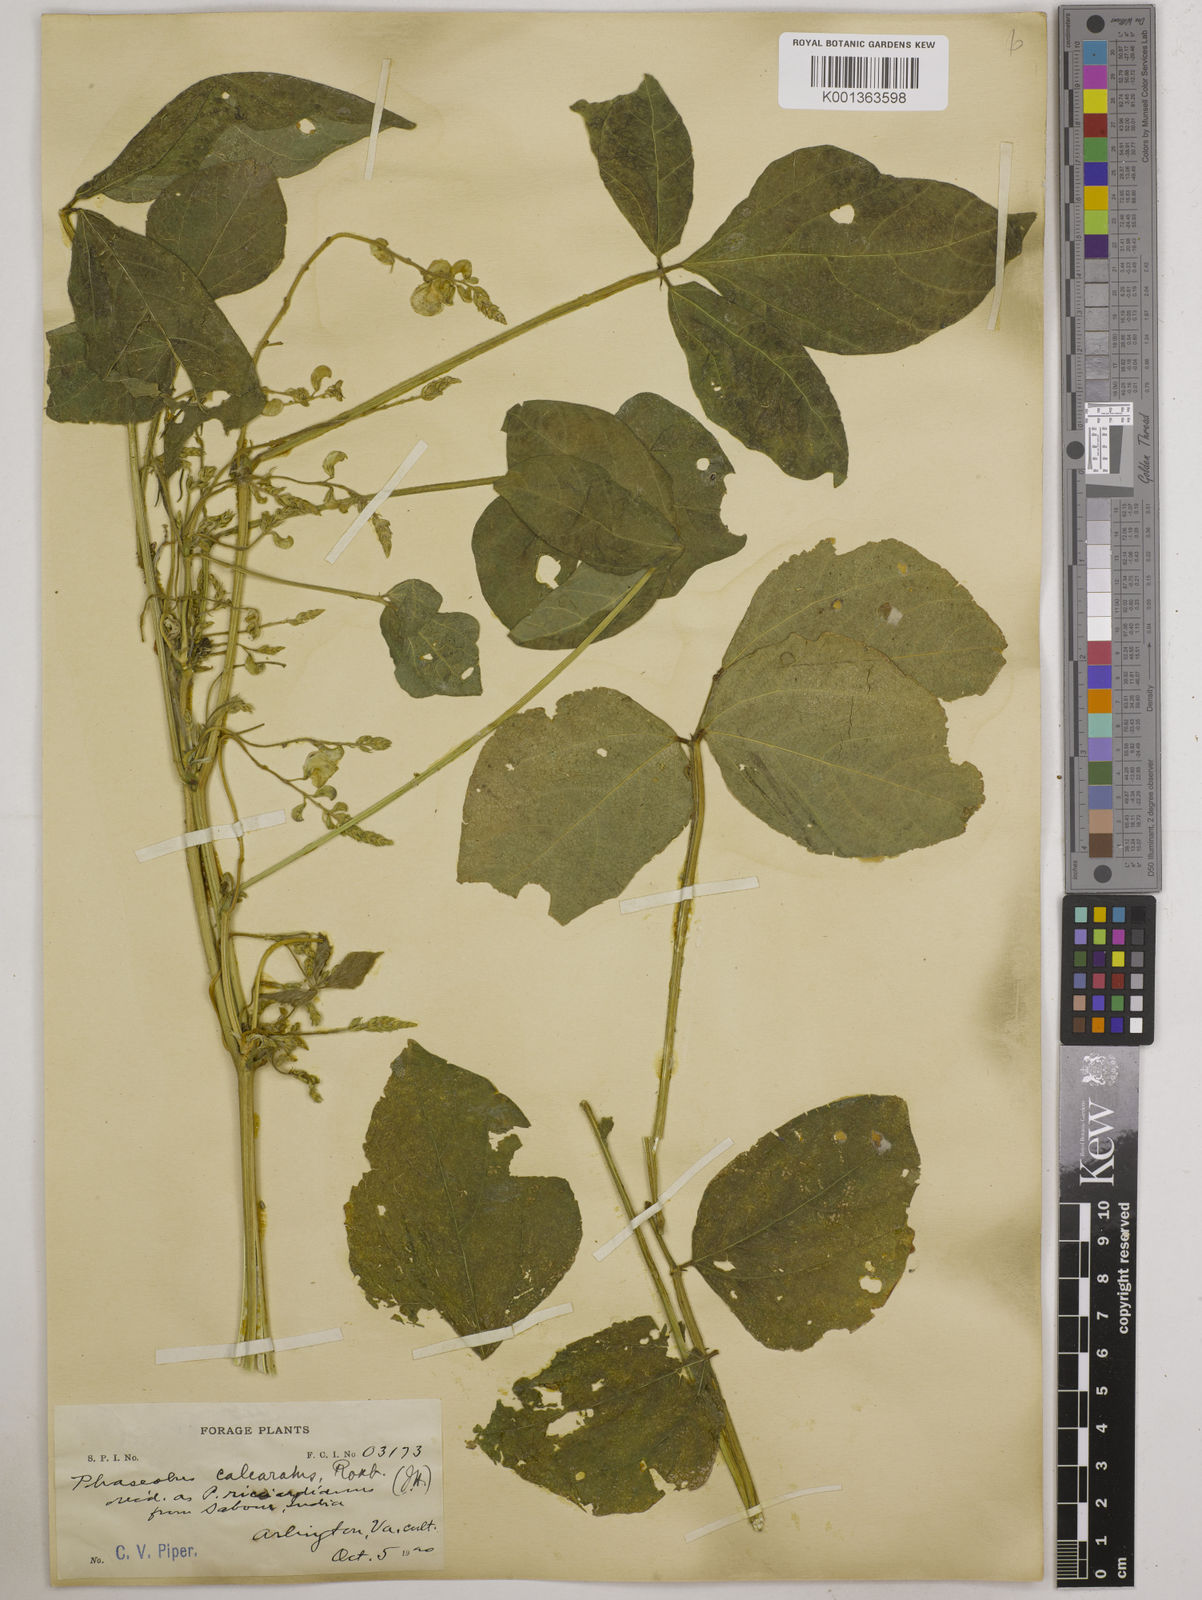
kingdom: Plantae
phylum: Tracheophyta
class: Magnoliopsida
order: Fabales
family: Fabaceae
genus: Vigna
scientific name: Vigna umbellata
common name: Oriental-bean
